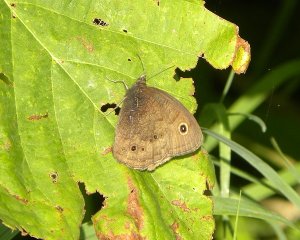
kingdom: Animalia
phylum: Arthropoda
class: Insecta
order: Lepidoptera
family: Nymphalidae
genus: Cercyonis
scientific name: Cercyonis pegala
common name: Common Wood-Nymph
